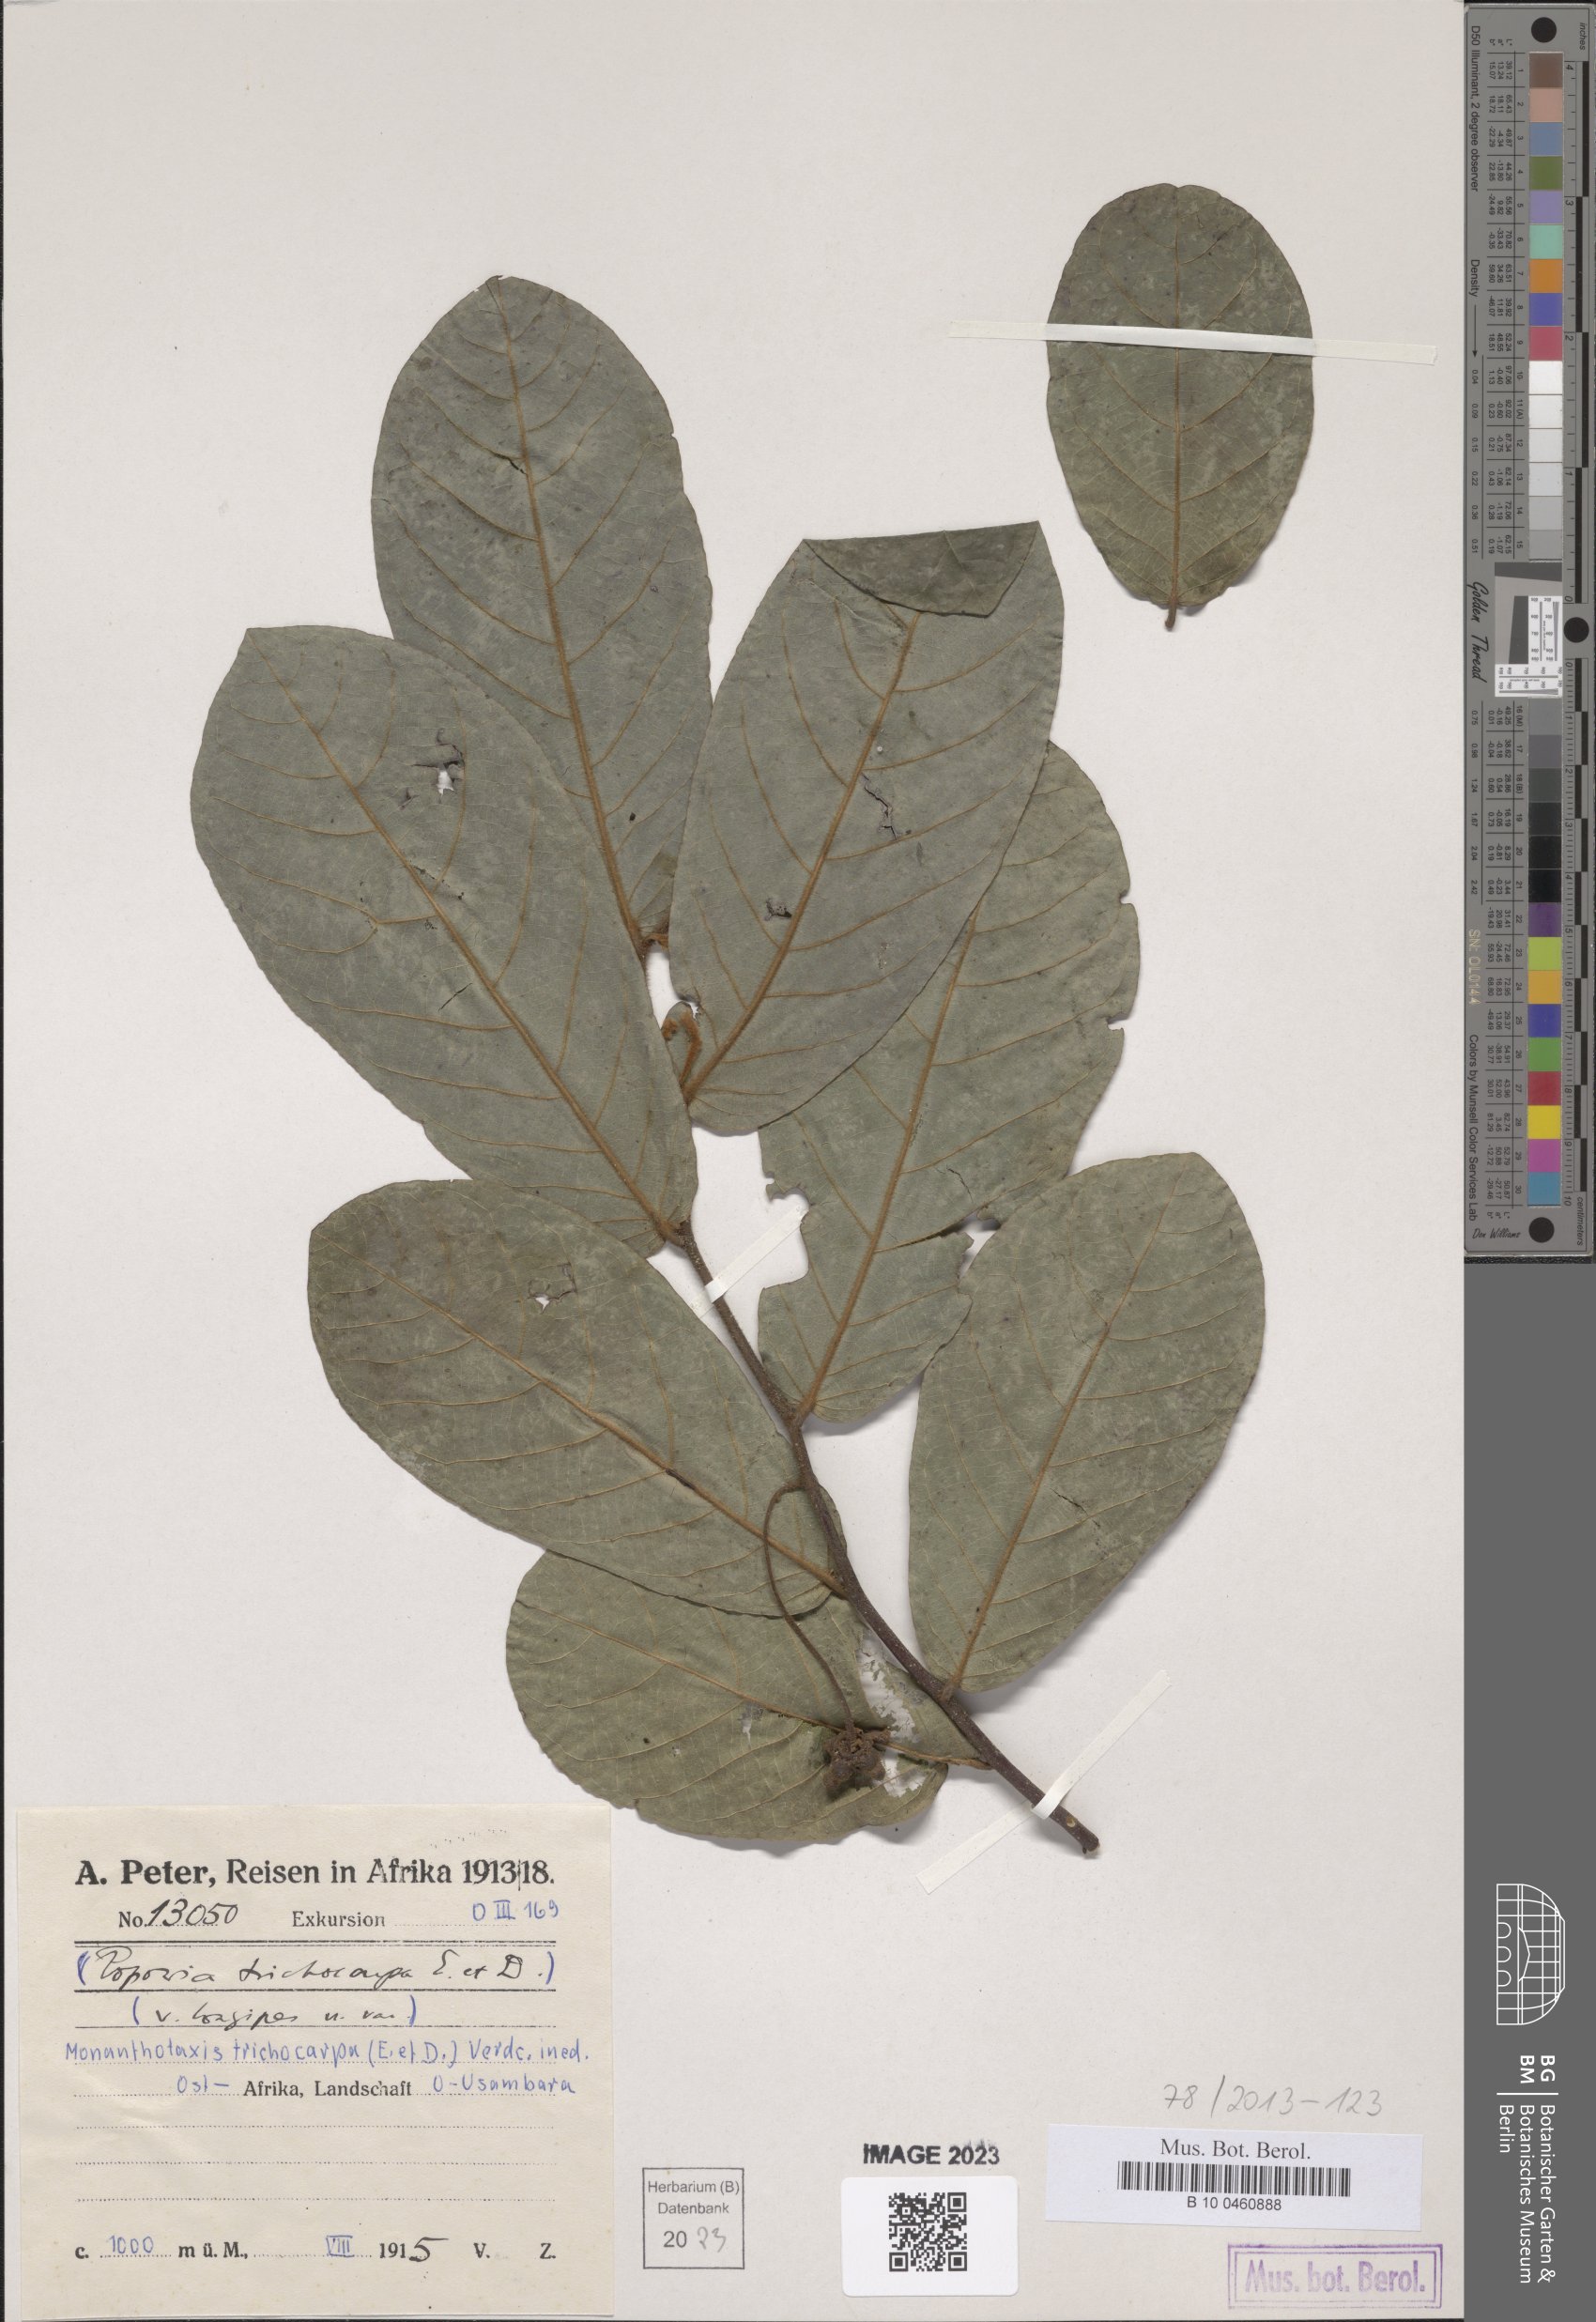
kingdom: Plantae
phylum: Tracheophyta
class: Magnoliopsida
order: Magnoliales
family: Annonaceae
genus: Monanthotaxis
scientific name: Monanthotaxis trichocarpa
